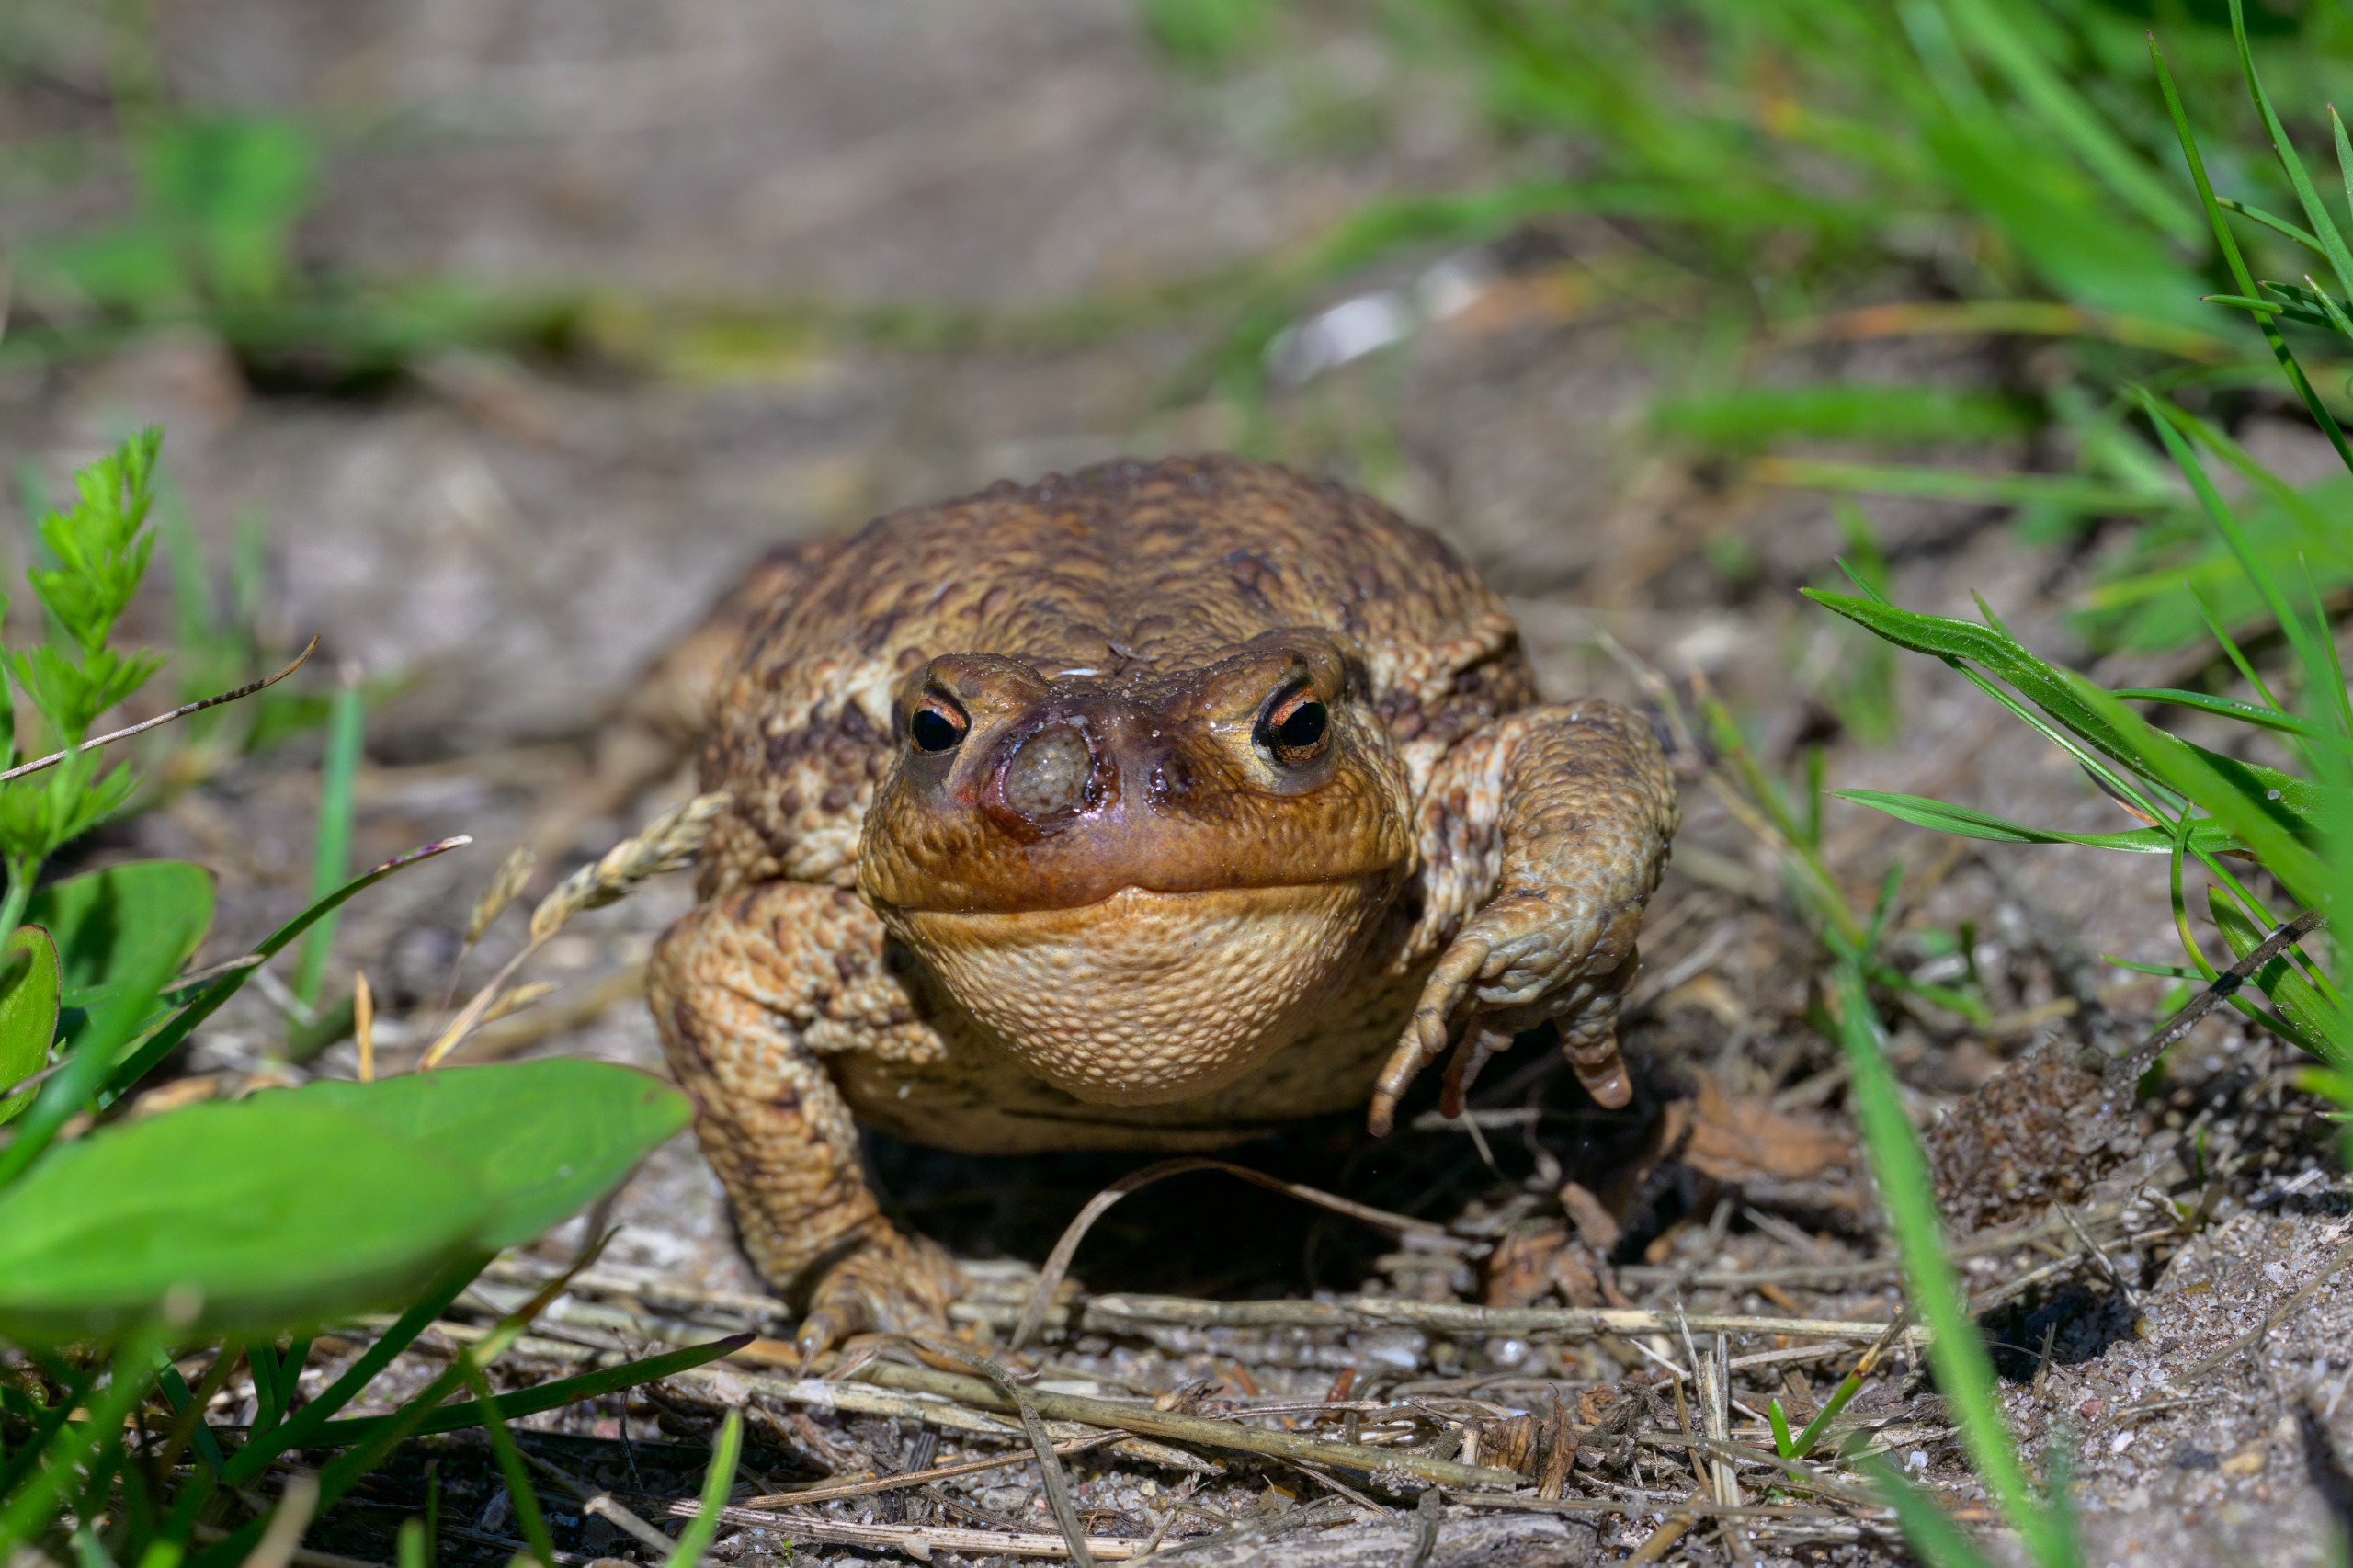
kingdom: Animalia
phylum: Chordata
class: Amphibia
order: Anura
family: Bufonidae
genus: Bufo
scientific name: Bufo bufo
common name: Skrubtudse
